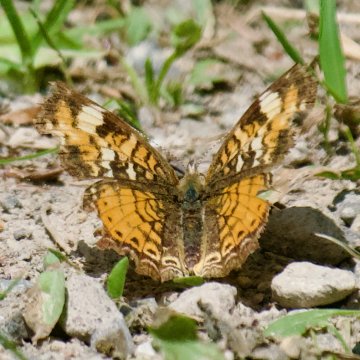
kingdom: Animalia
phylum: Arthropoda
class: Insecta
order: Lepidoptera
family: Nymphalidae
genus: Phyciodes
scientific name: Phyciodes
